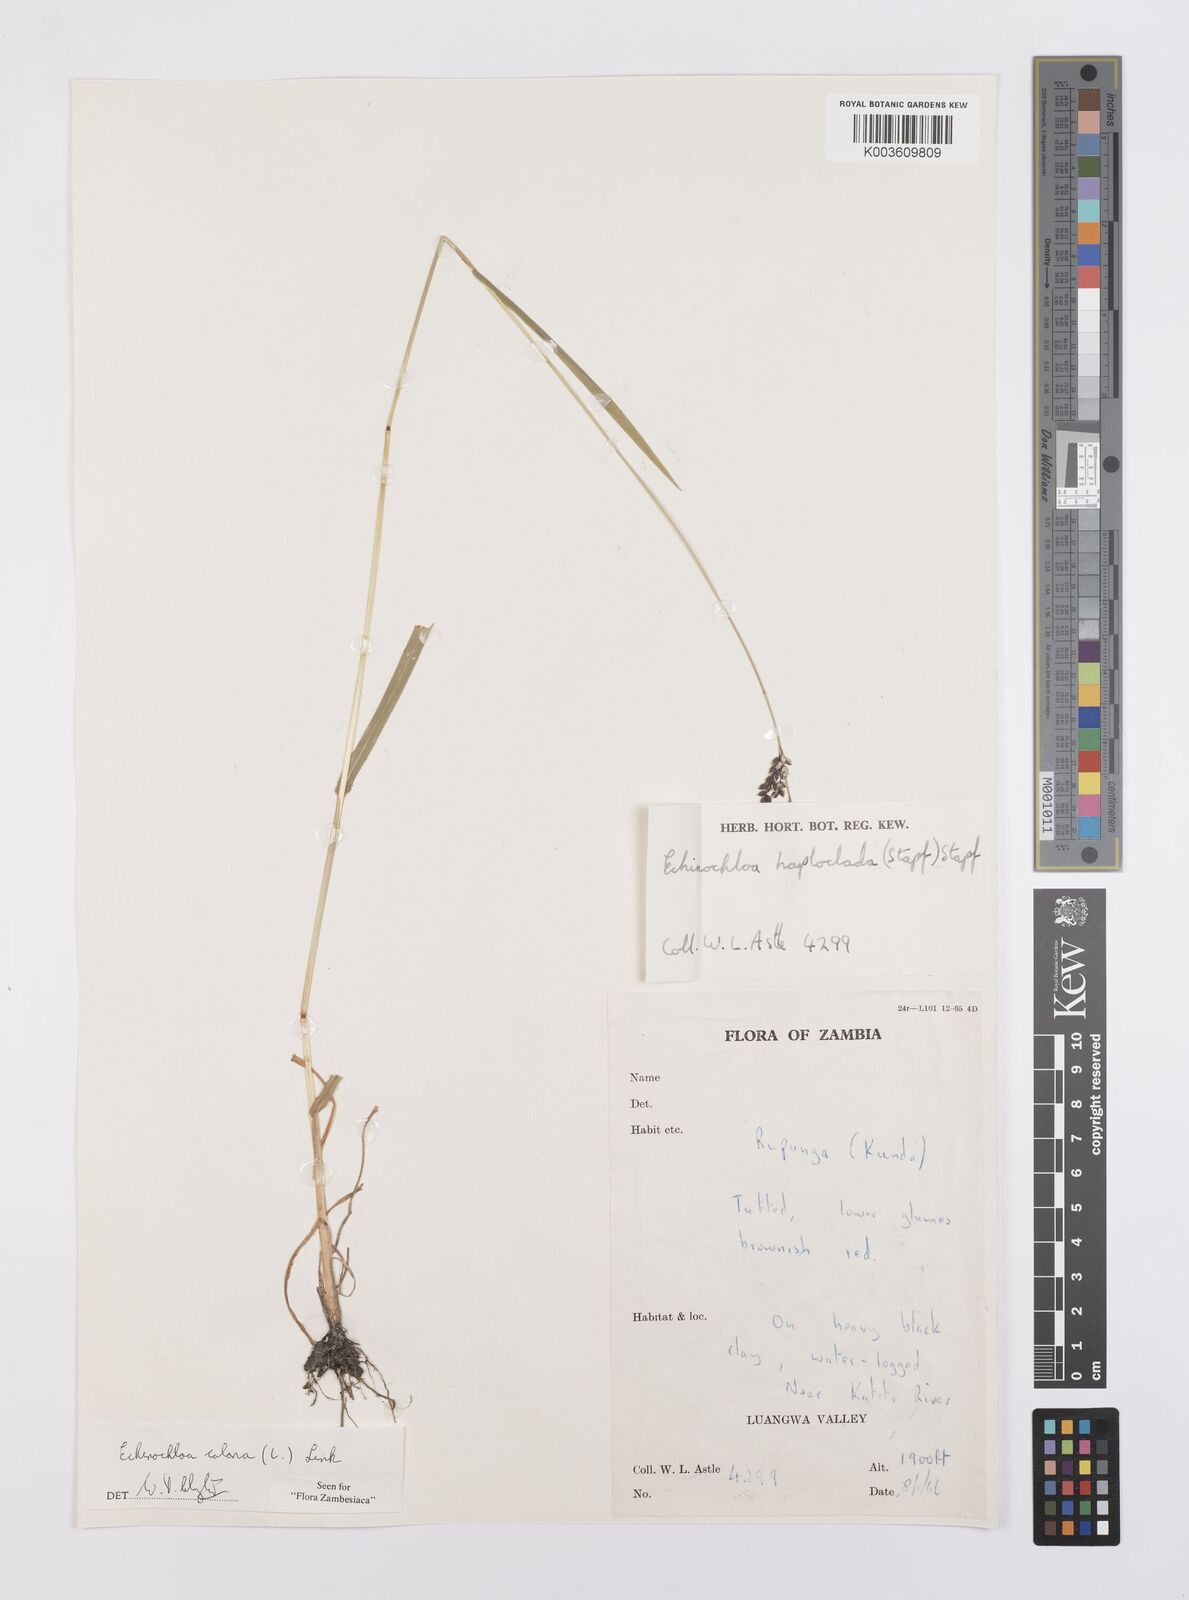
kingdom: Plantae
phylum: Tracheophyta
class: Liliopsida
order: Poales
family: Poaceae
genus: Echinochloa
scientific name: Echinochloa colonum
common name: Jungle rice
